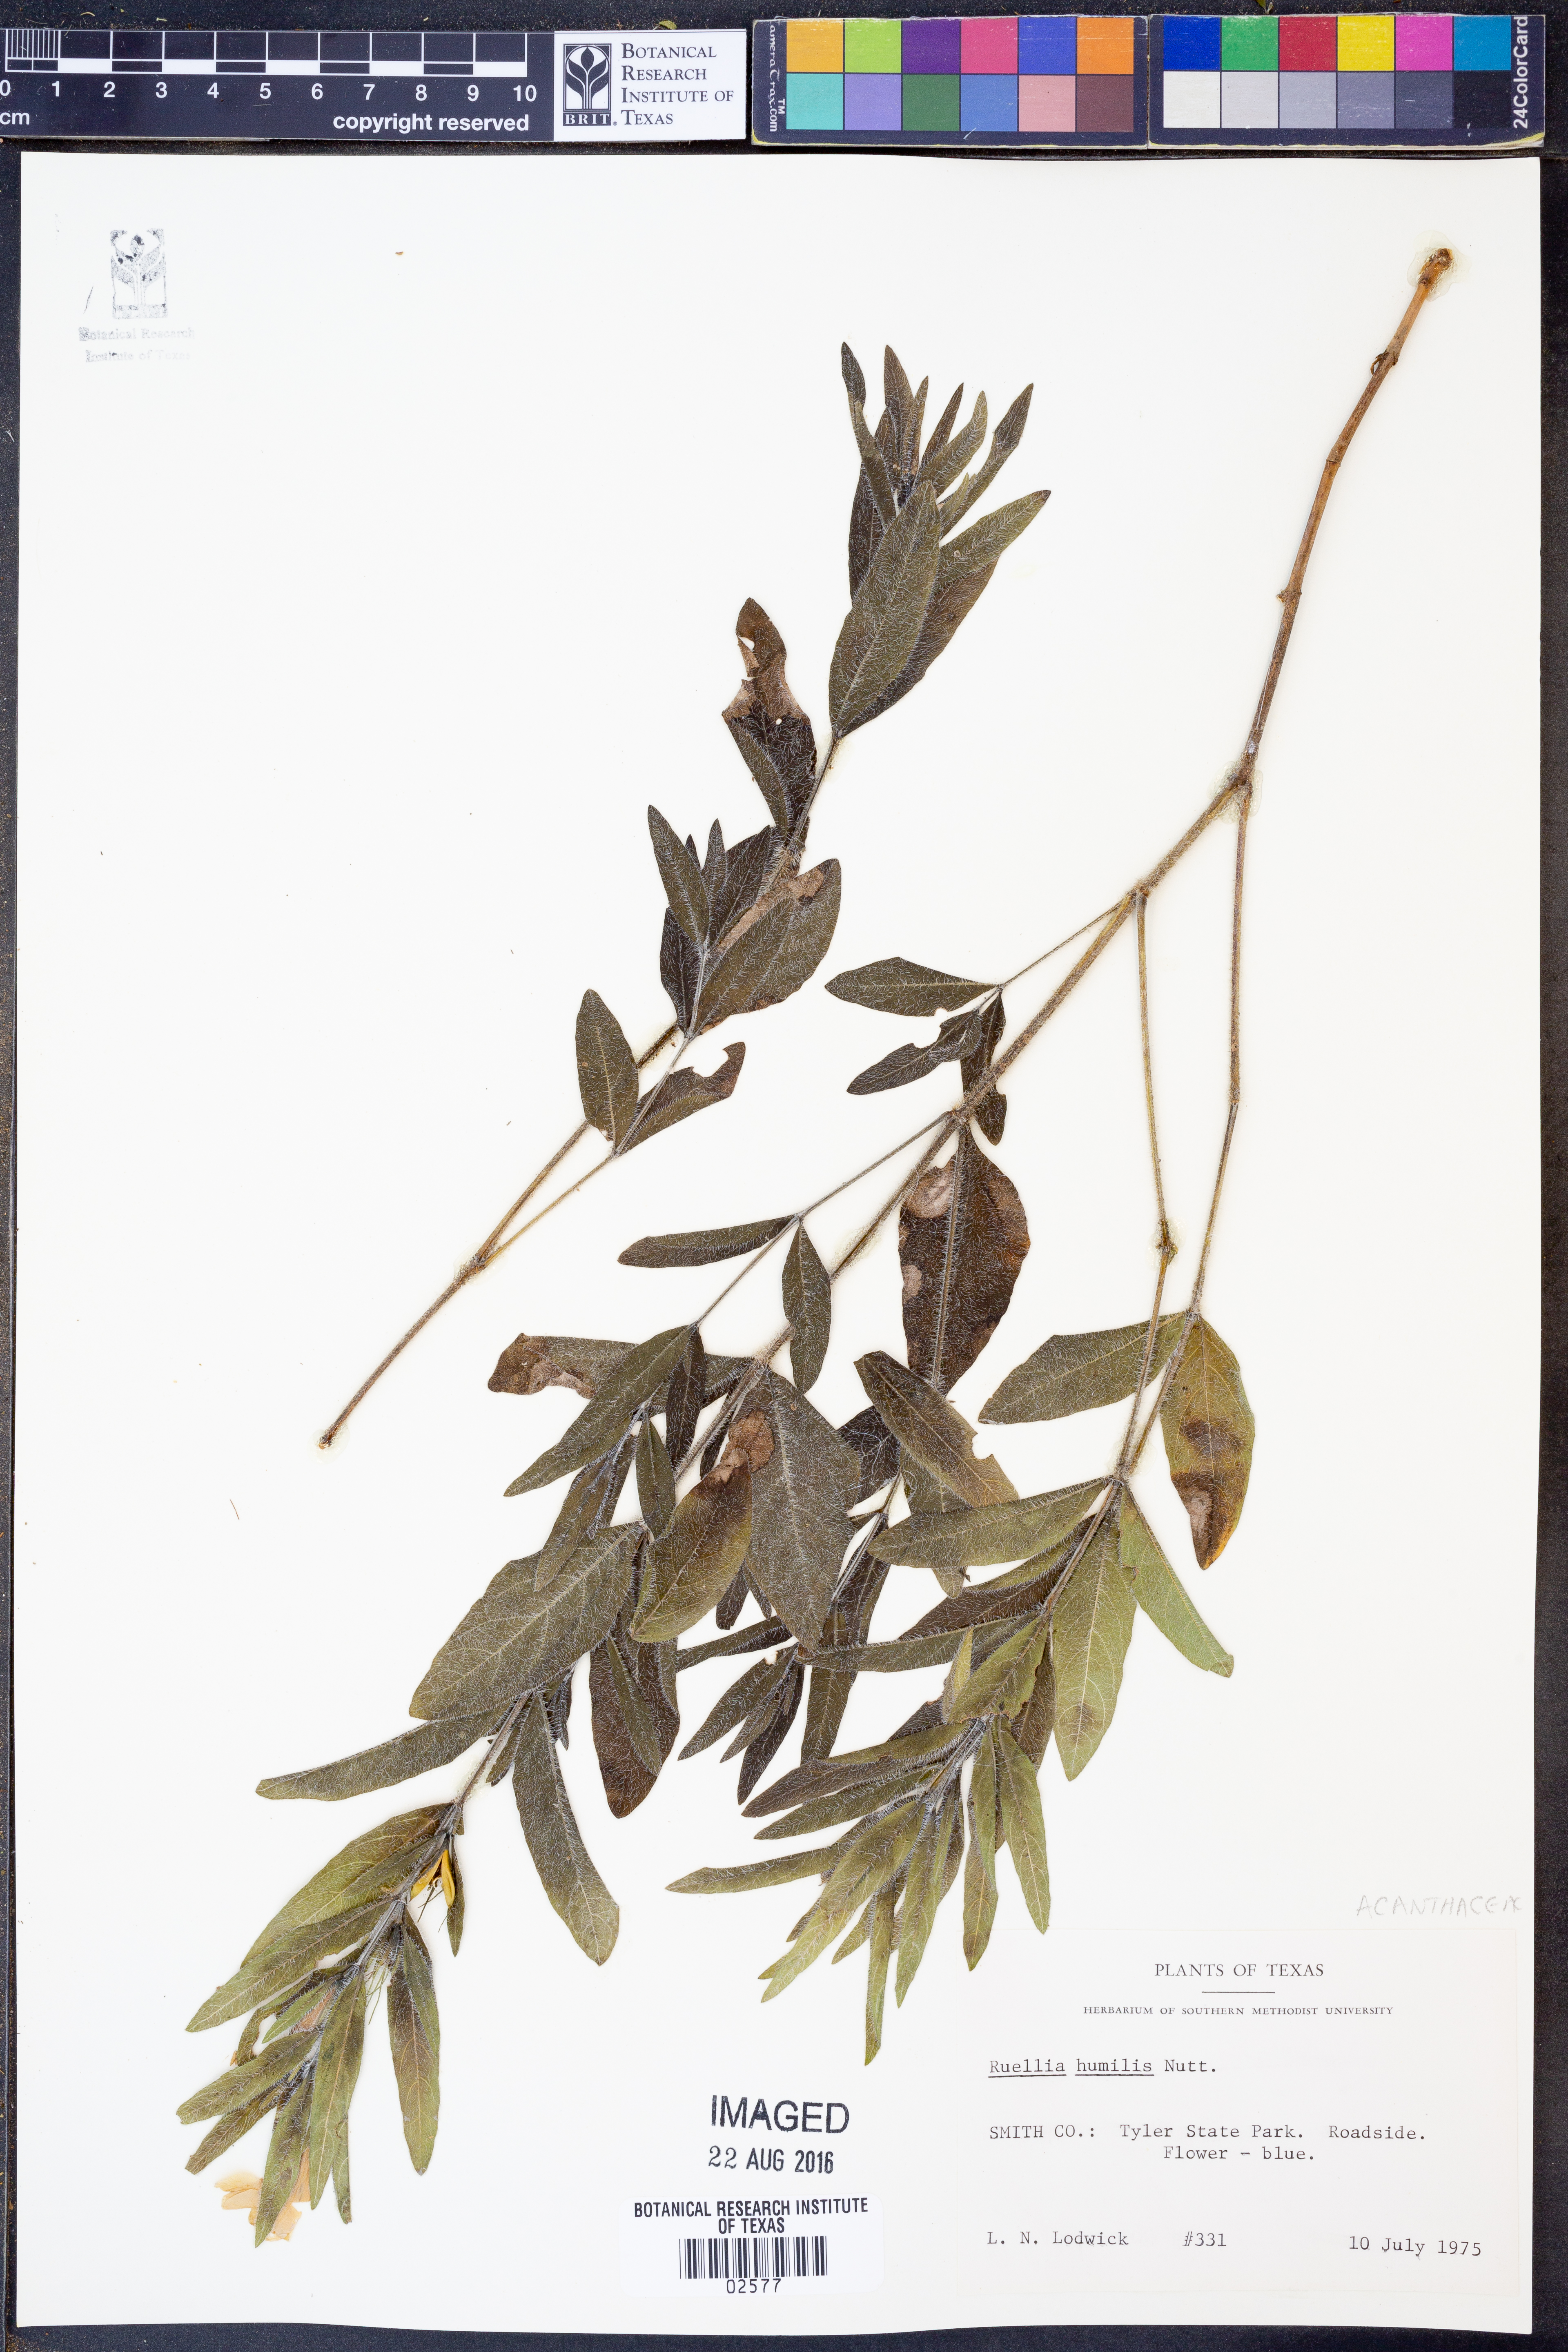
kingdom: Plantae
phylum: Tracheophyta
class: Magnoliopsida
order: Lamiales
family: Acanthaceae
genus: Ruellia
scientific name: Ruellia humilis
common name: Fringe-leaf ruellia
